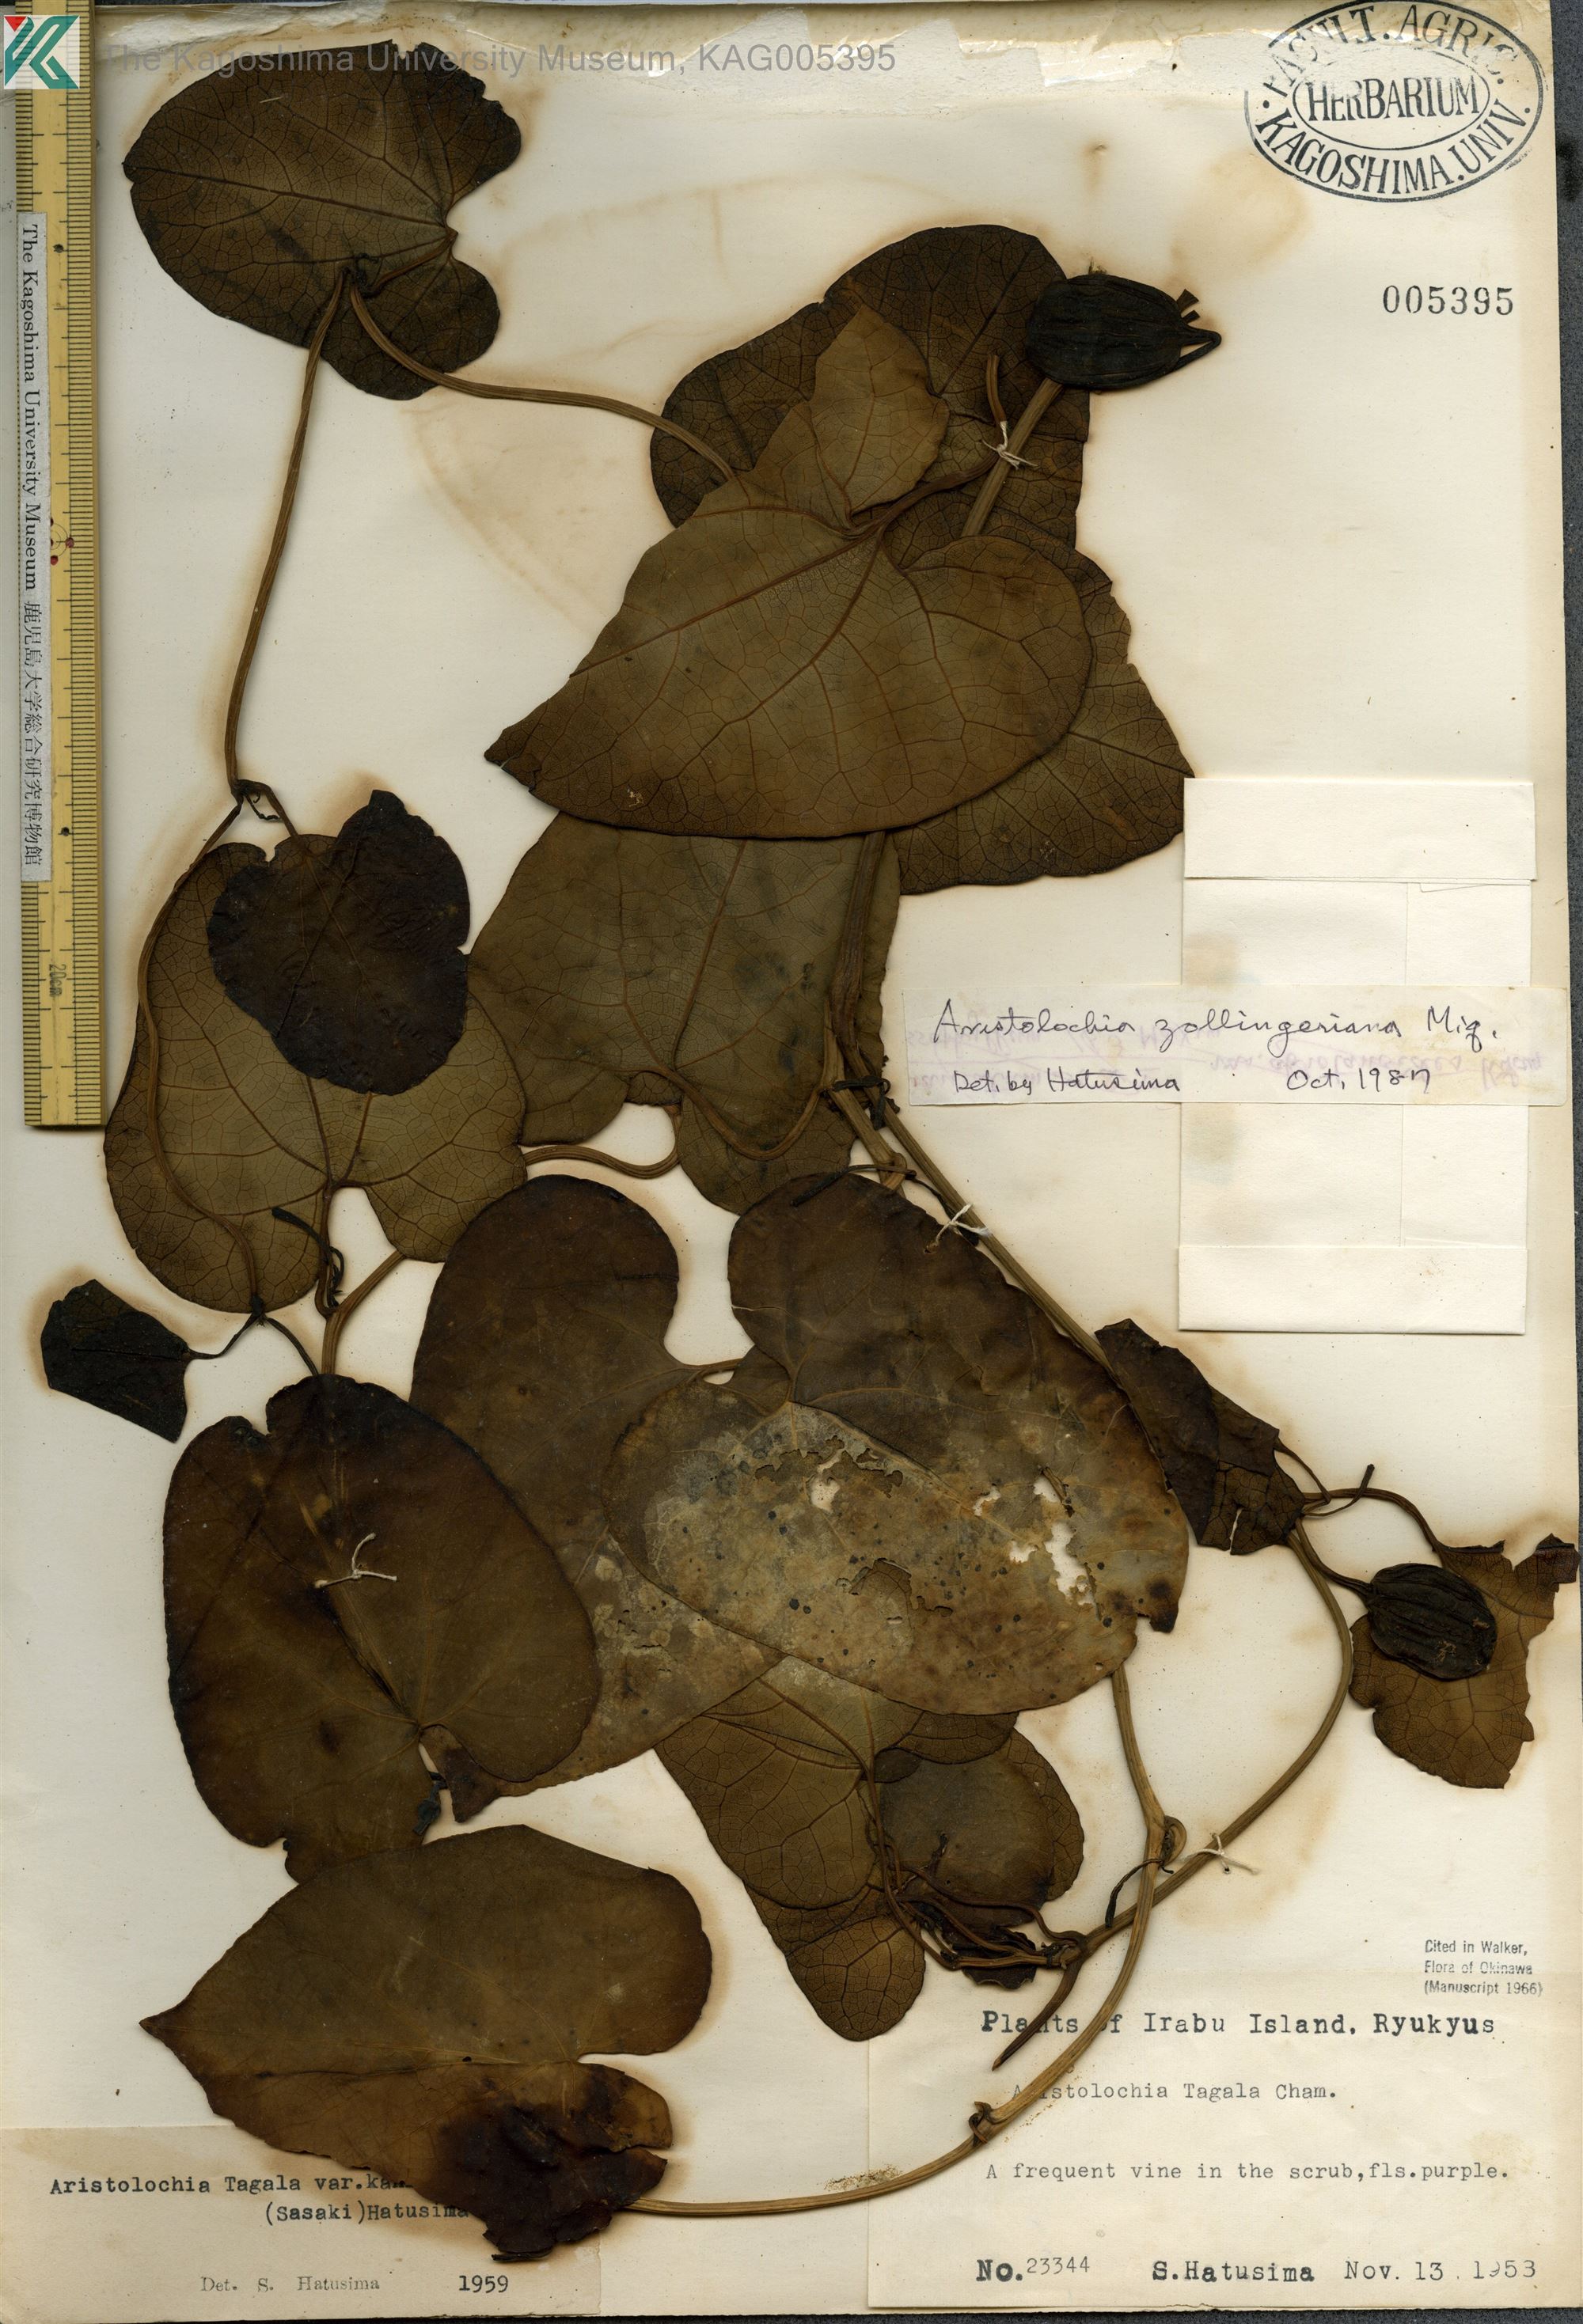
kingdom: Plantae
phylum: Tracheophyta
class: Magnoliopsida
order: Piperales
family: Aristolochiaceae
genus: Aristolochia
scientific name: Aristolochia zollingeriana
